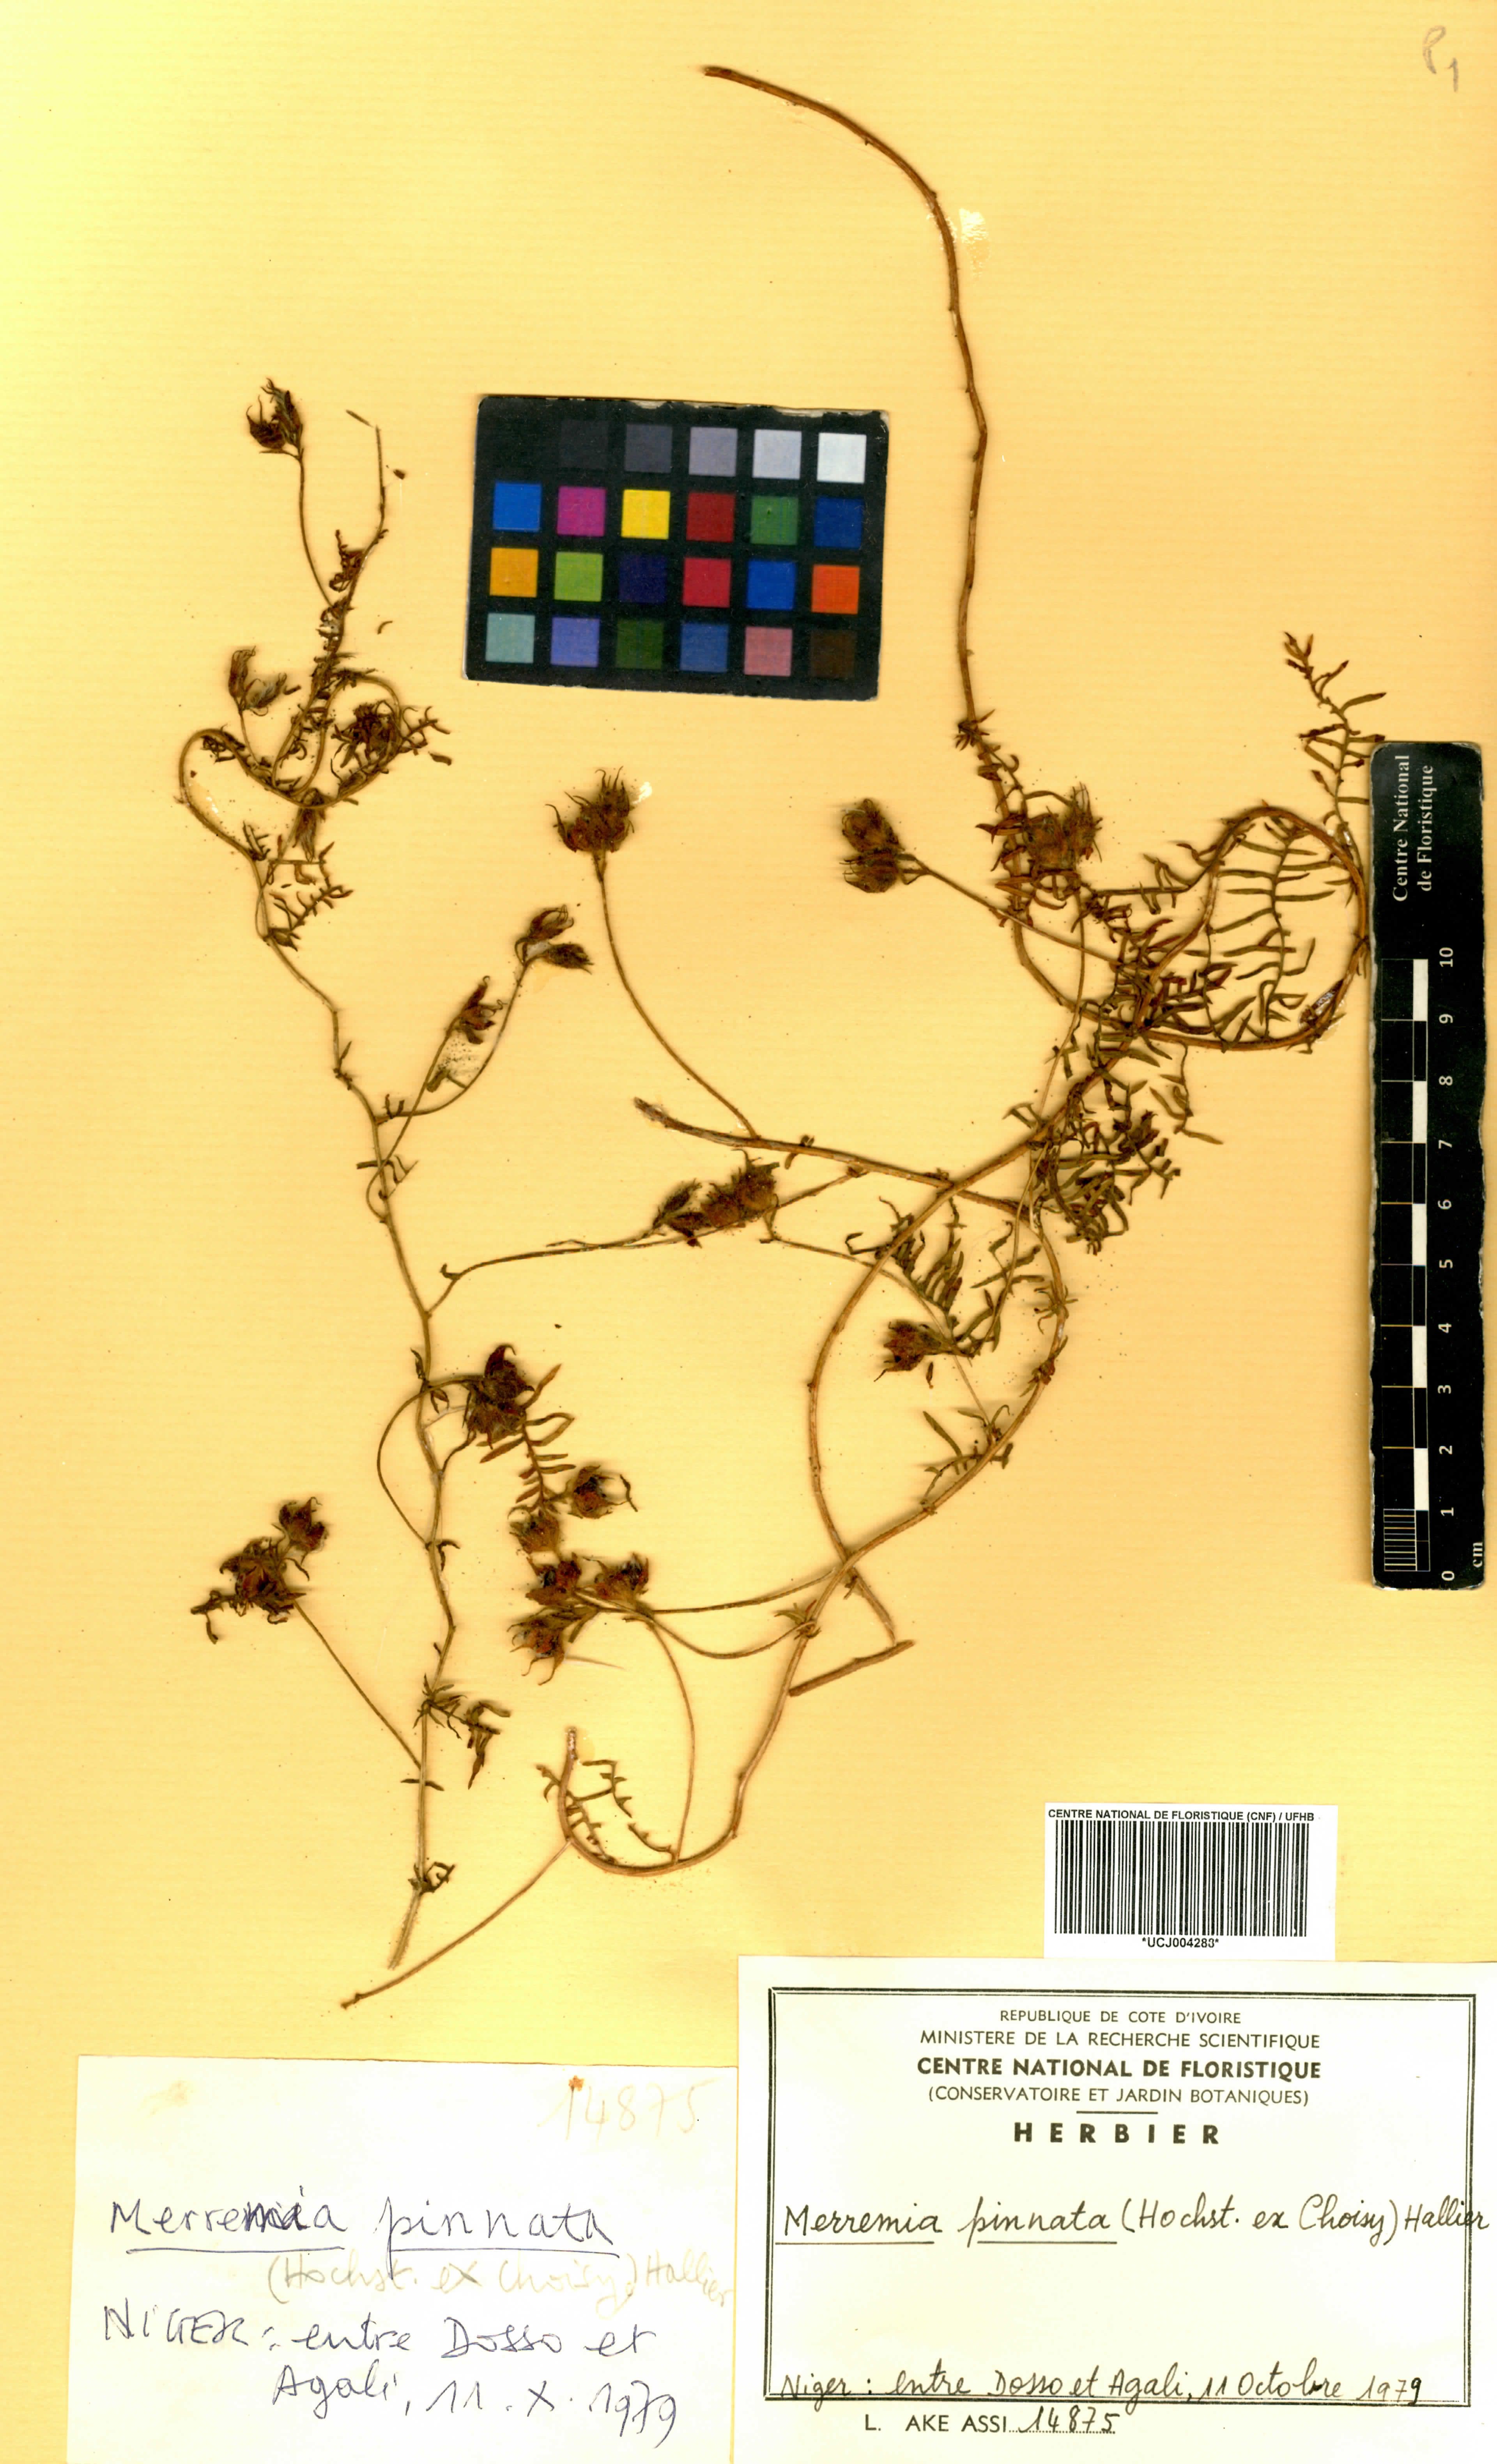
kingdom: Plantae
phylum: Tracheophyta
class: Magnoliopsida
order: Solanales
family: Convolvulaceae
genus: Xenostegia
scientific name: Xenostegia pinnata
